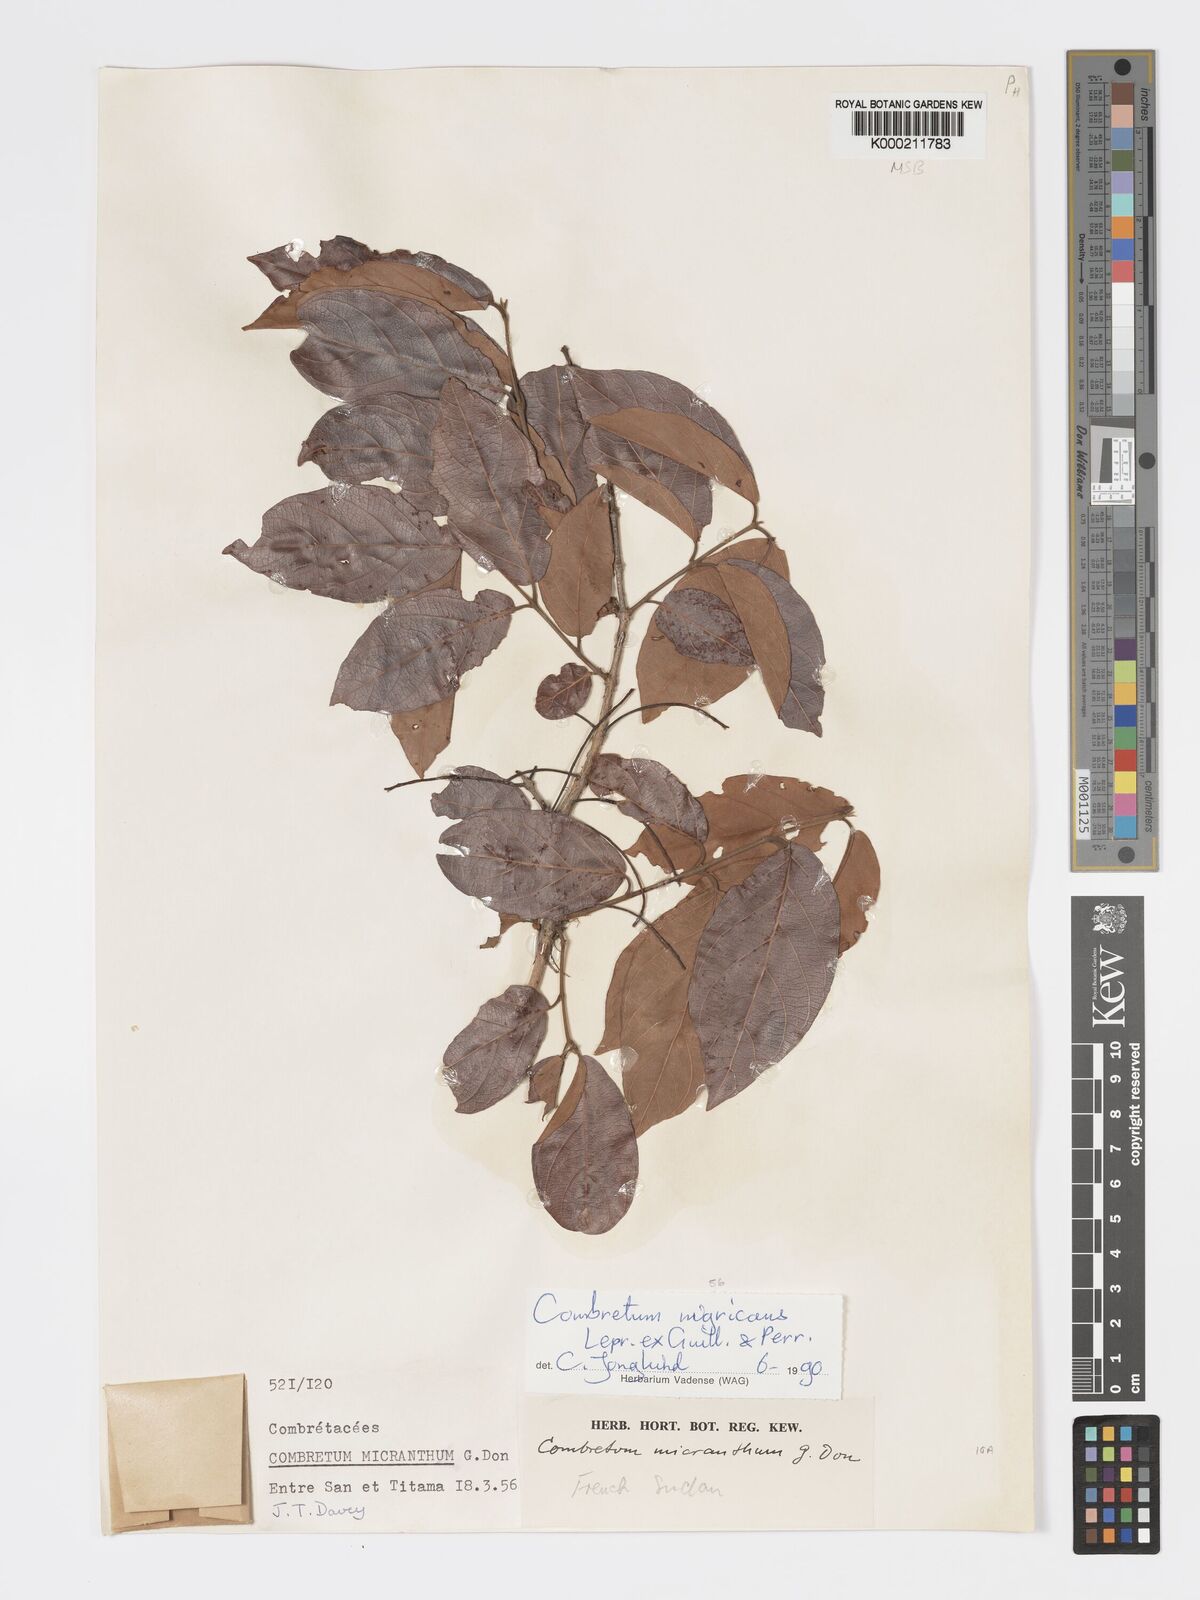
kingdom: Plantae
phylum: Tracheophyta
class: Magnoliopsida
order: Myrtales
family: Combretaceae
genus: Combretum
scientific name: Combretum nigricans
